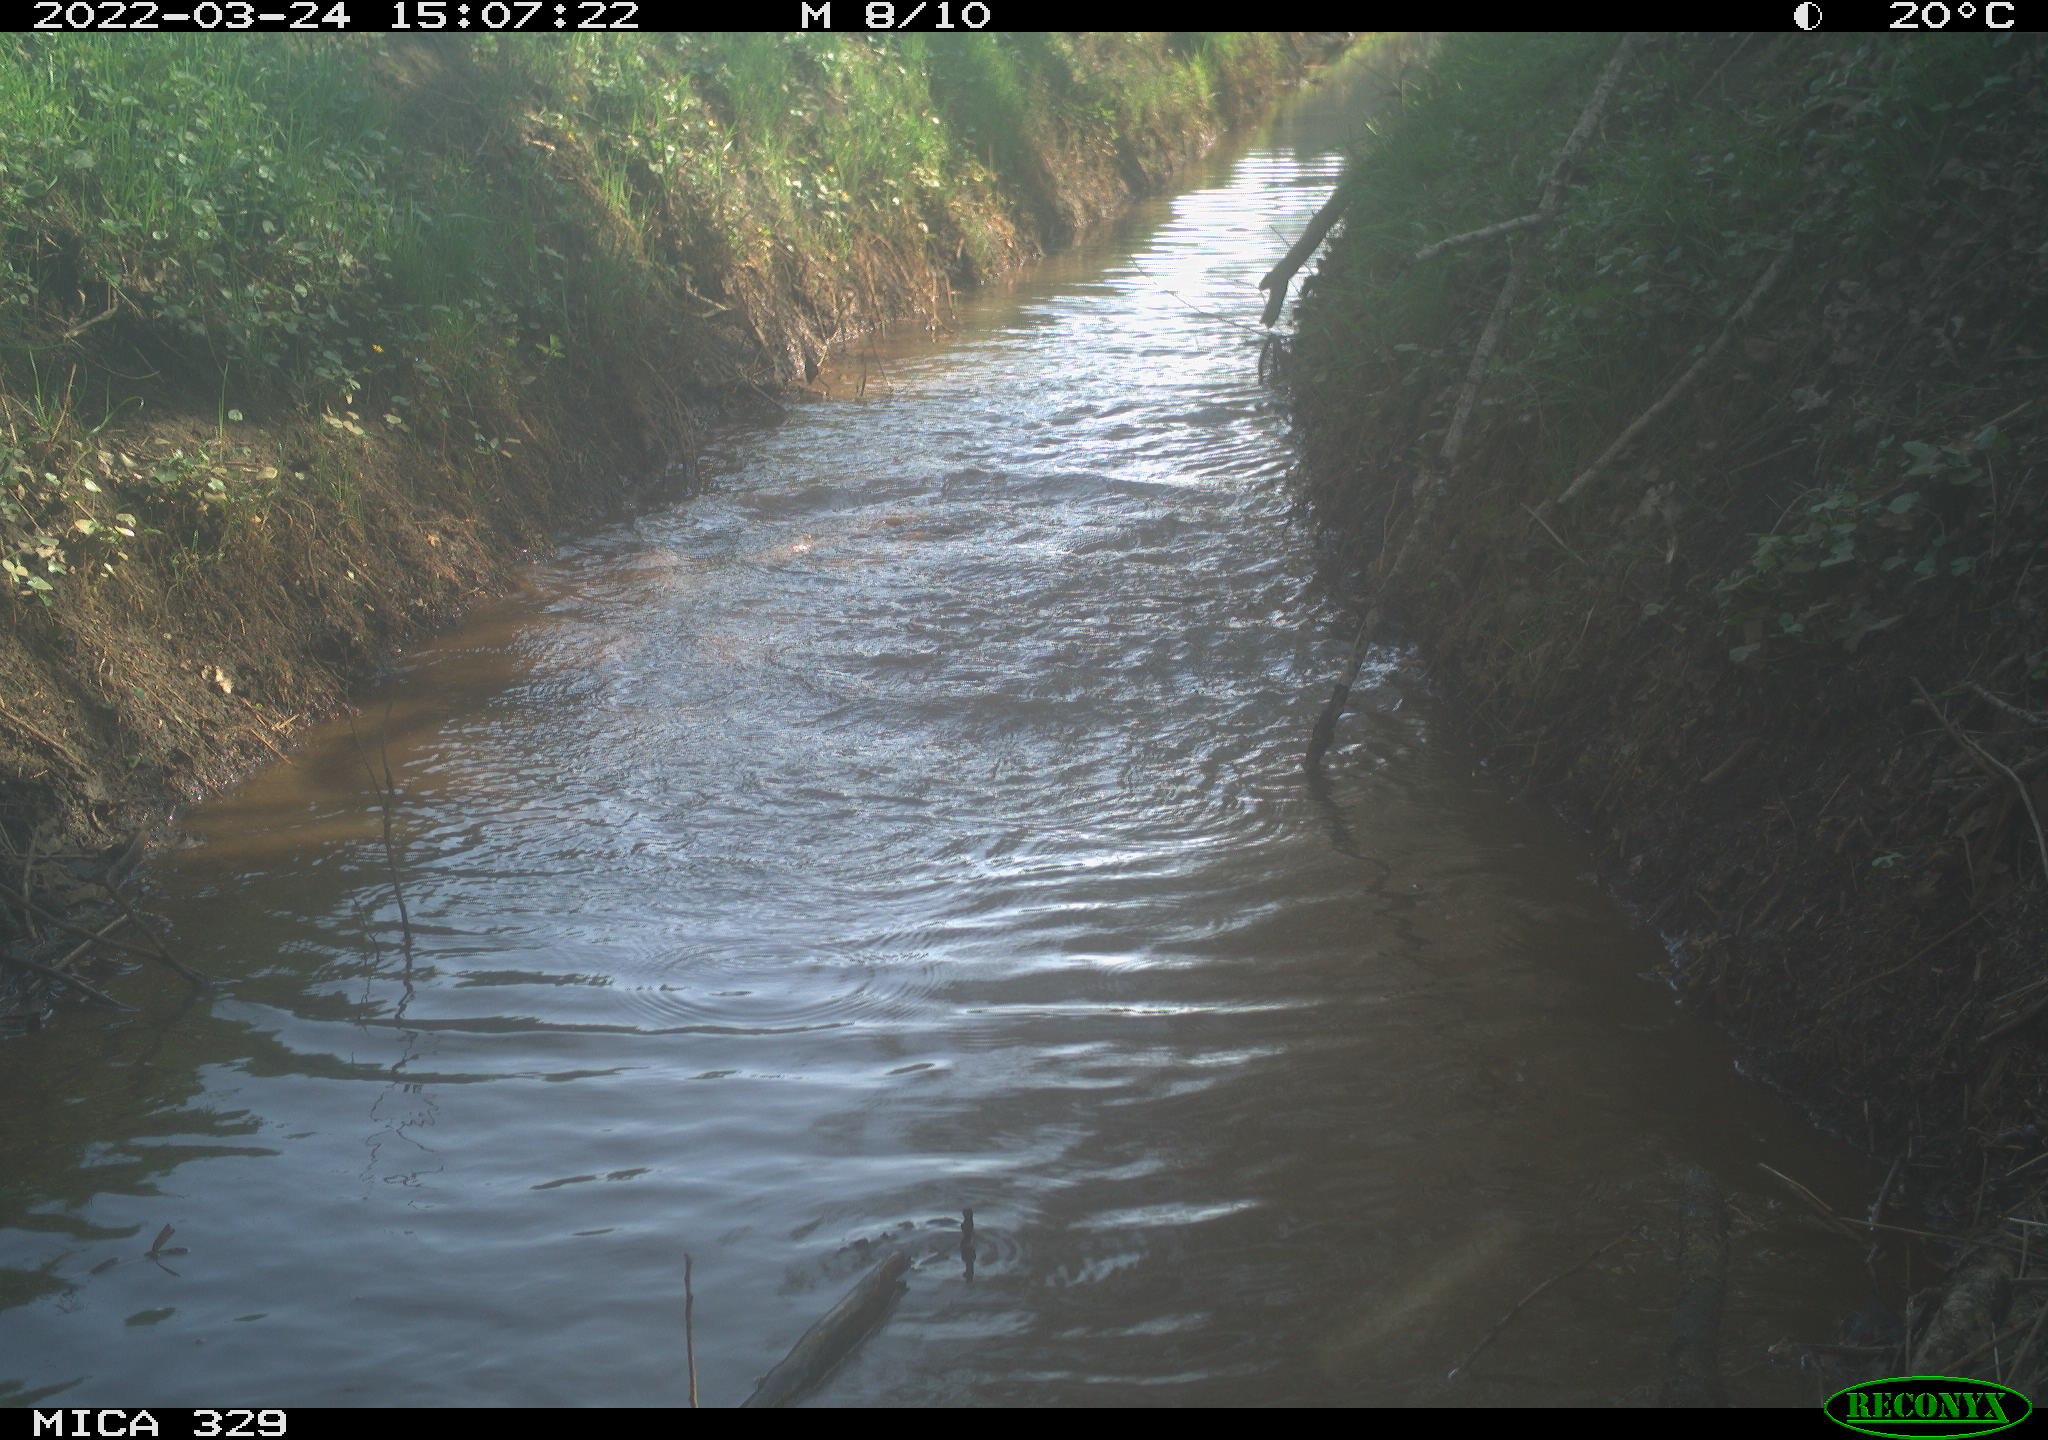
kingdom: Animalia
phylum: Chordata
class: Aves
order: Anseriformes
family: Anatidae
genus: Anas
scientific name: Anas platyrhynchos
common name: Mallard
